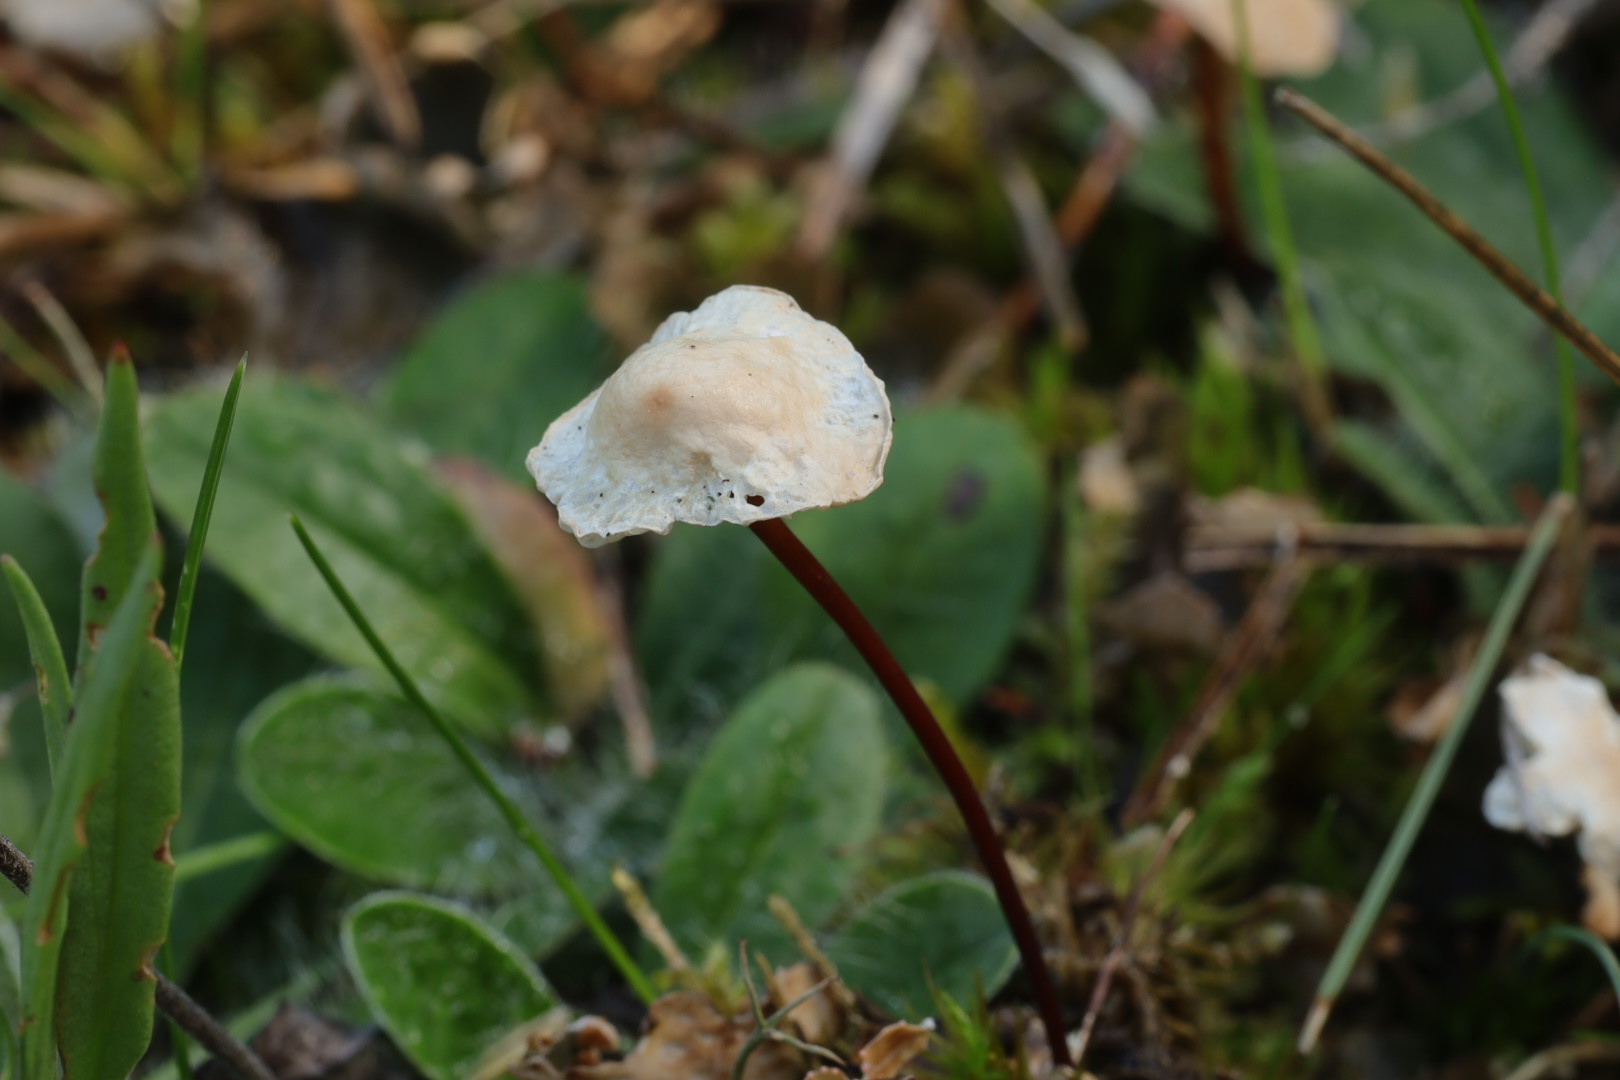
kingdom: Fungi
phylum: Basidiomycota
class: Agaricomycetes
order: Agaricales
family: Omphalotaceae
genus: Mycetinis
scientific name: Mycetinis scorodonius
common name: lille løghat
